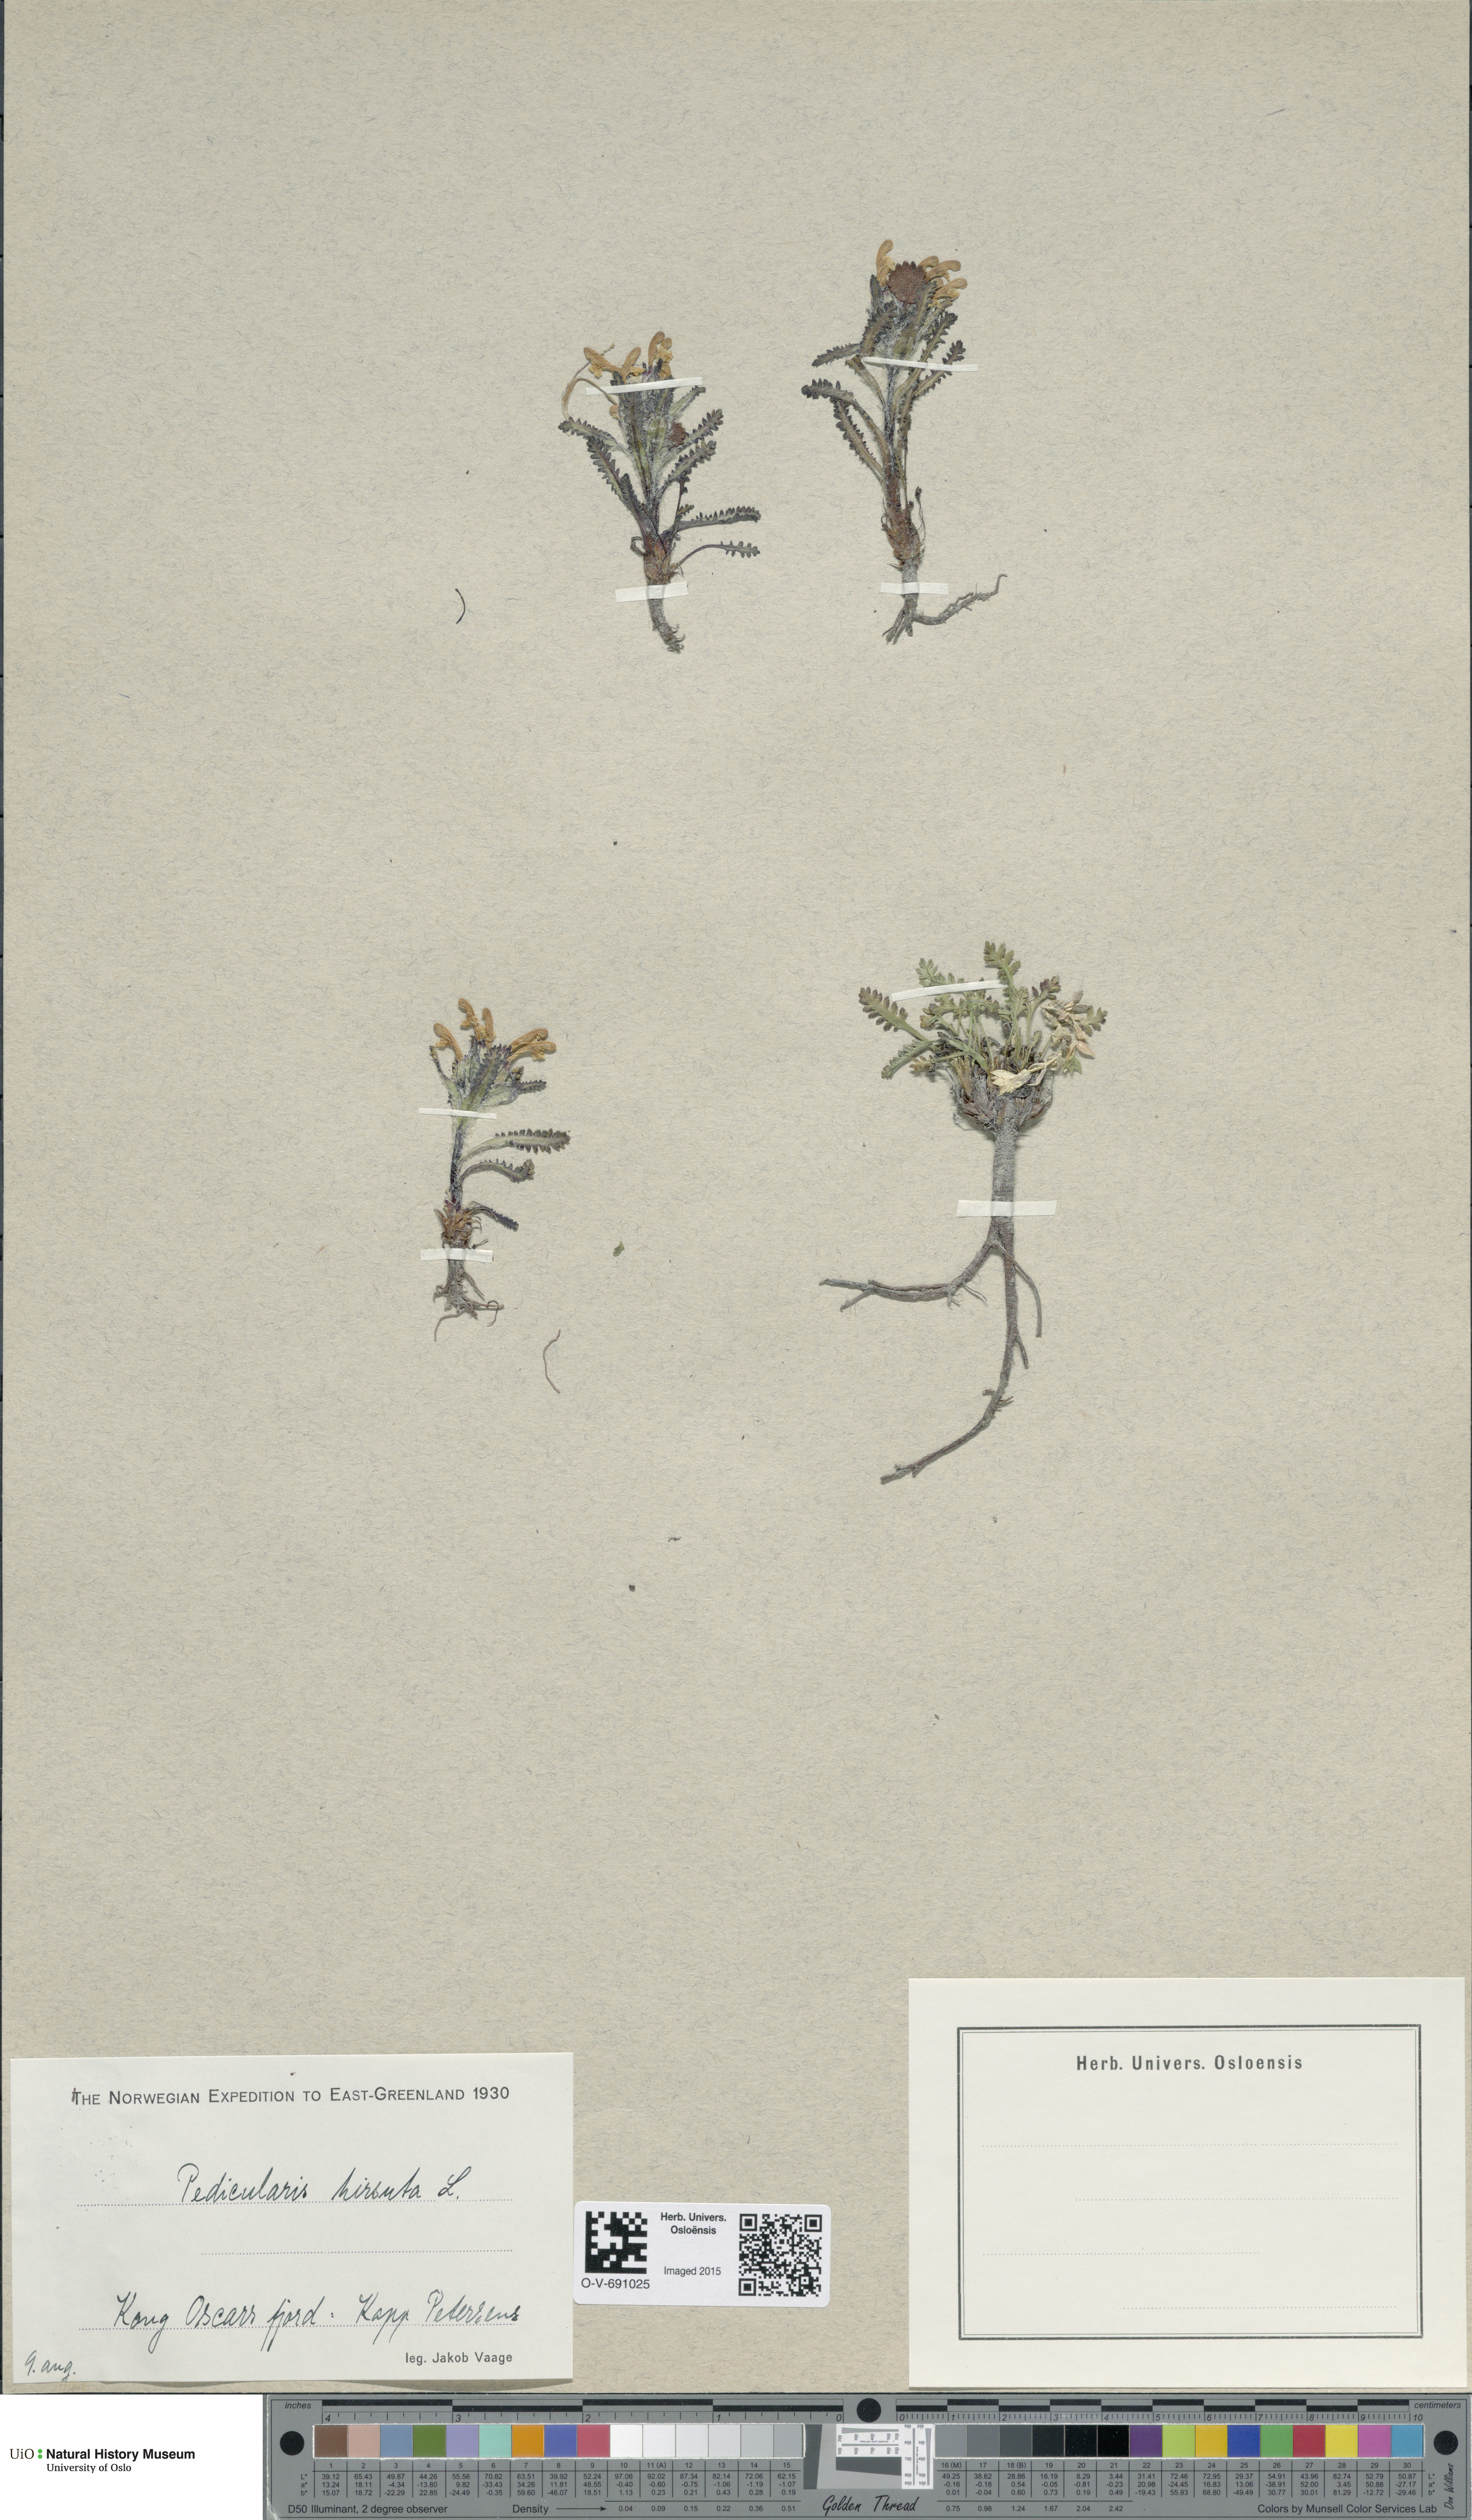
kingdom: Plantae
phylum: Tracheophyta
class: Magnoliopsida
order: Lamiales
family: Orobanchaceae
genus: Pedicularis
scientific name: Pedicularis hirsuta
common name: Hairy lousewort
